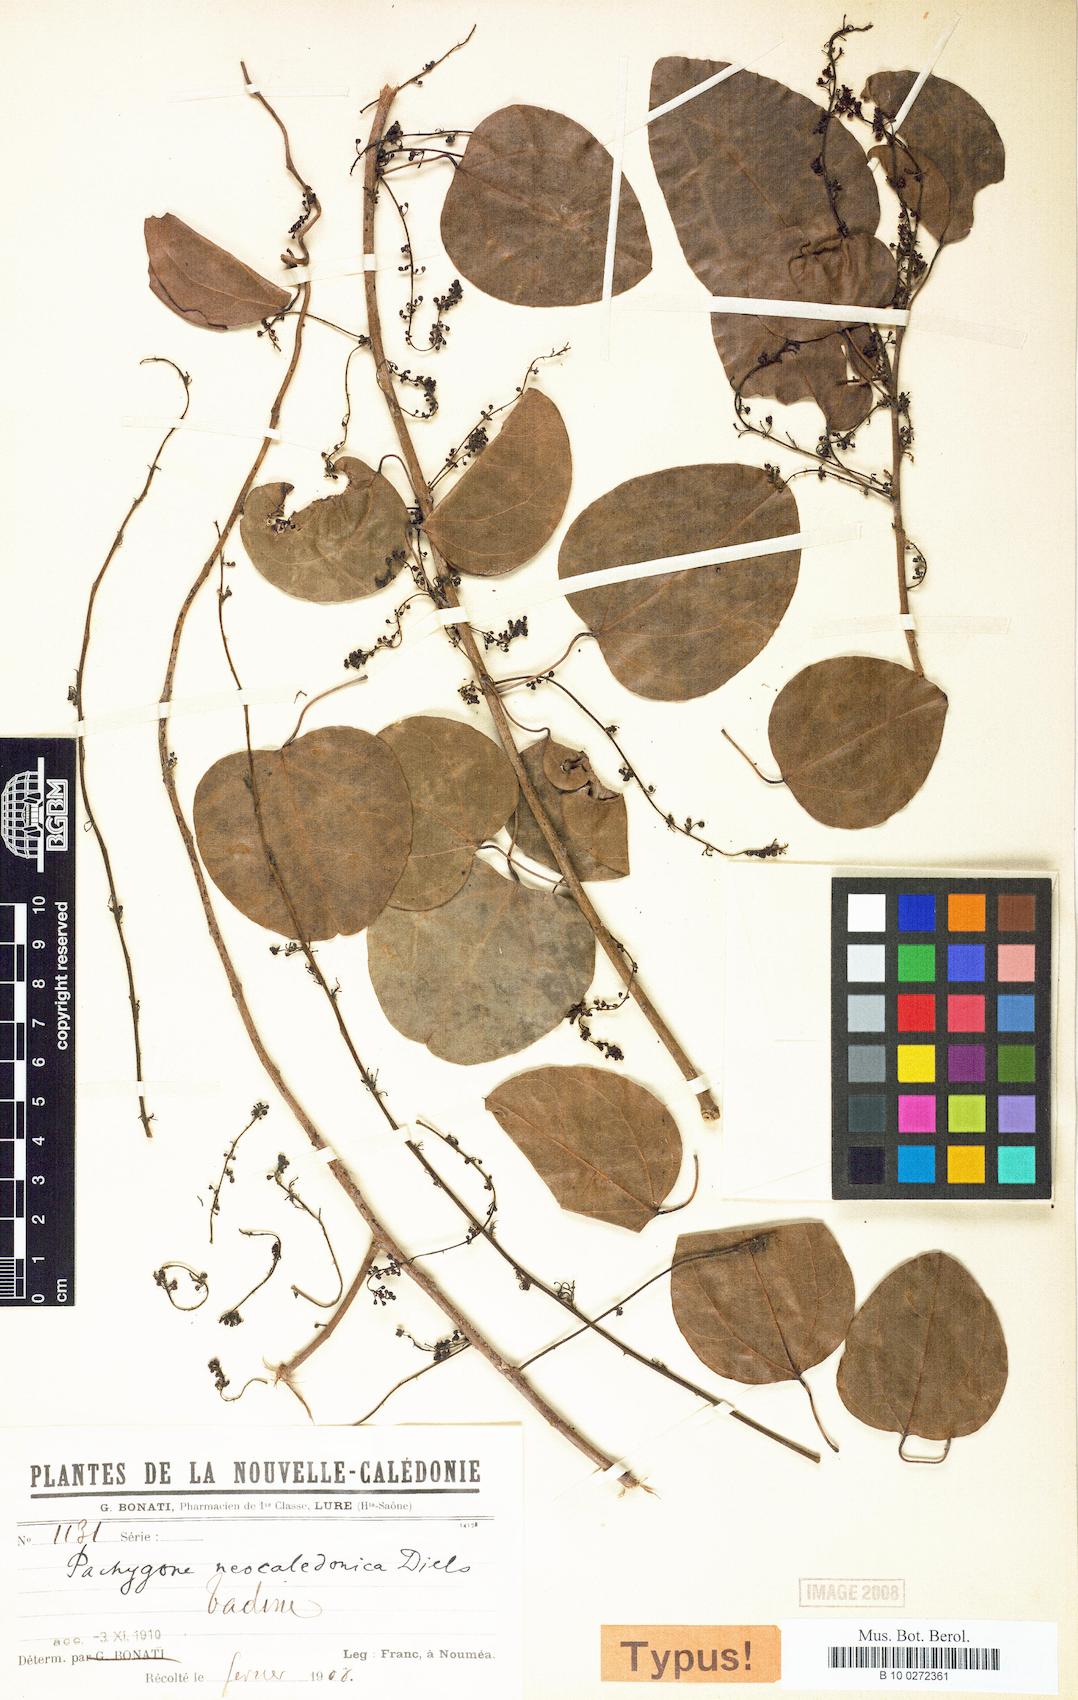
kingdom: Plantae
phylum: Tracheophyta
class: Magnoliopsida
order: Ranunculales
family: Menispermaceae
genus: Pachygone
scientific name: Pachygone
